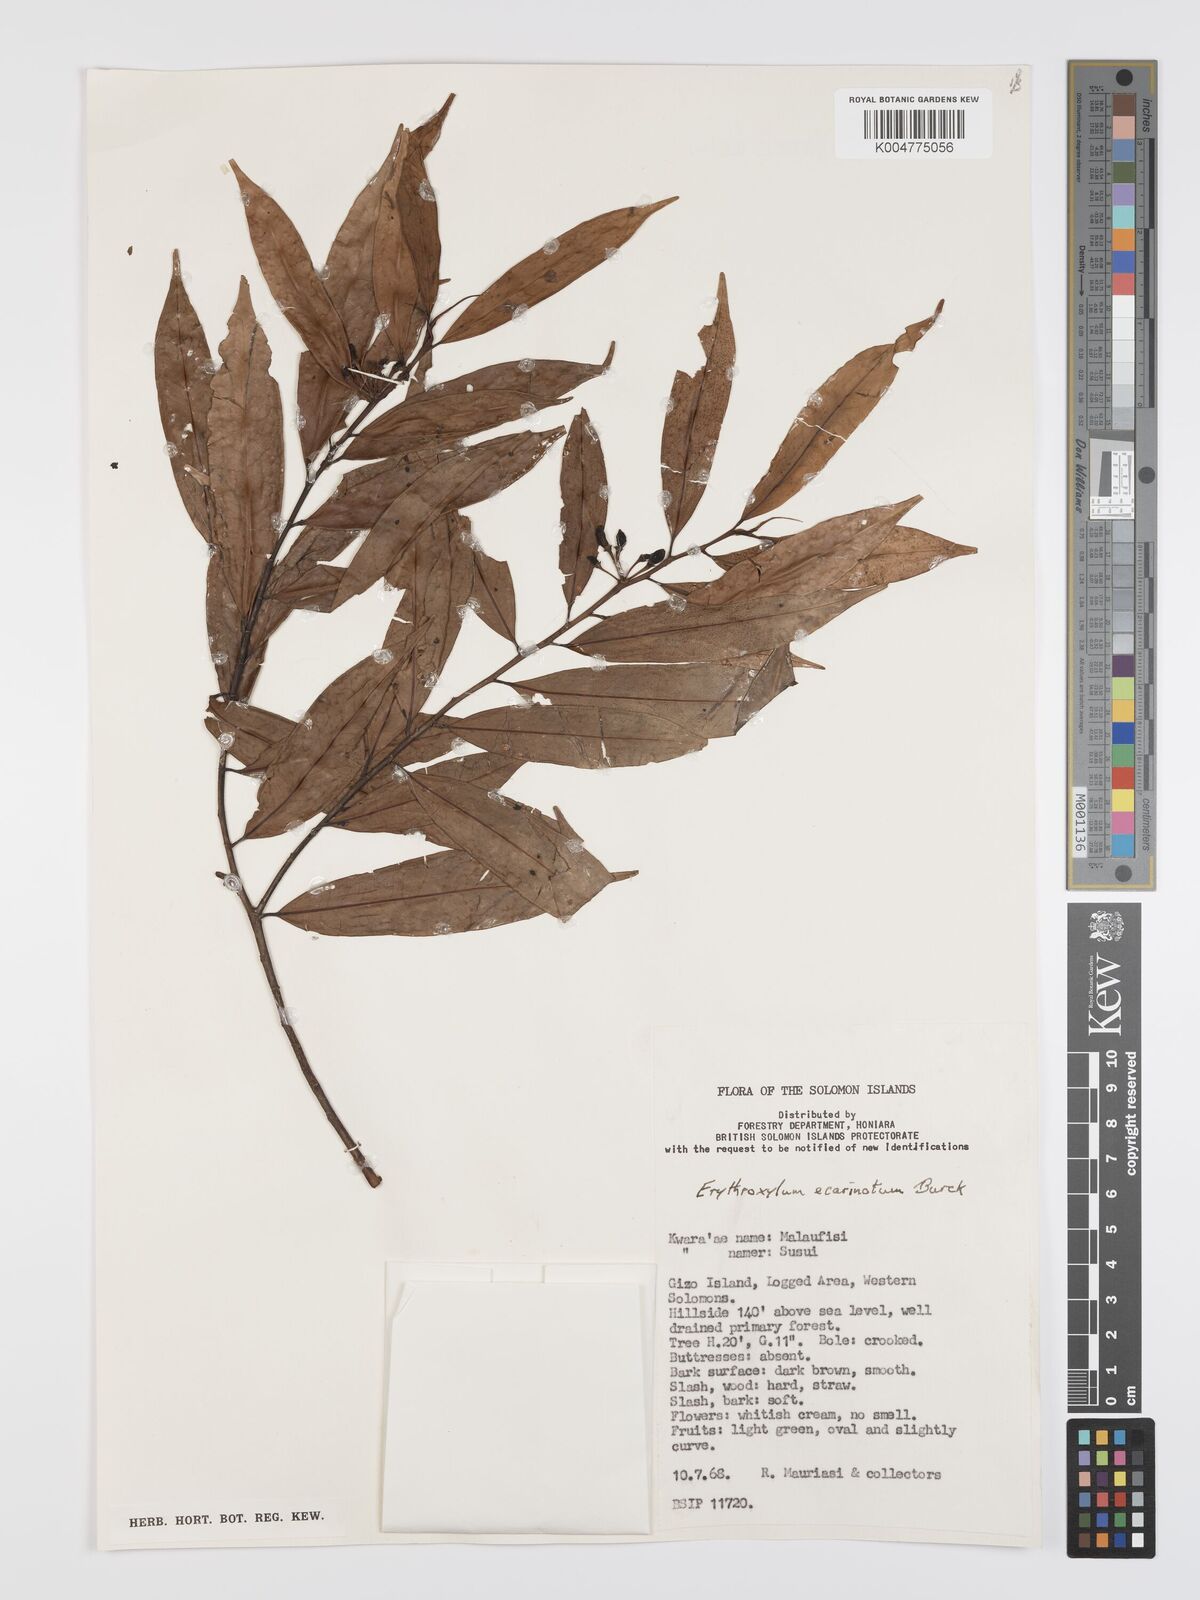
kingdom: Plantae
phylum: Tracheophyta
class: Magnoliopsida
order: Malpighiales
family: Erythroxylaceae
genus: Erythroxylum
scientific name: Erythroxylum ecarinatum
